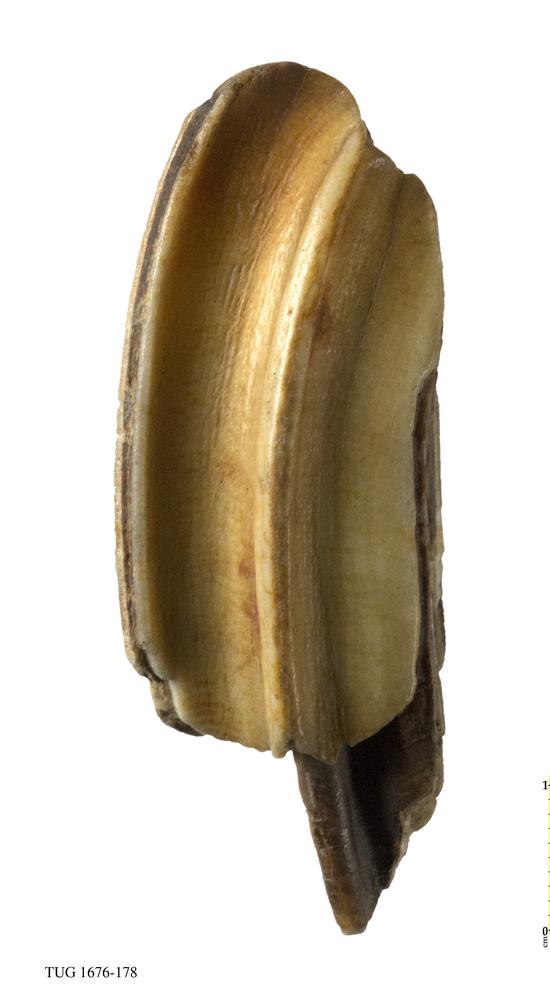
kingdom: Animalia
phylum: Chordata
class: Mammalia
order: Perissodactyla
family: Equidae
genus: Equus
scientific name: Equus ferus
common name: Russian wild horse
